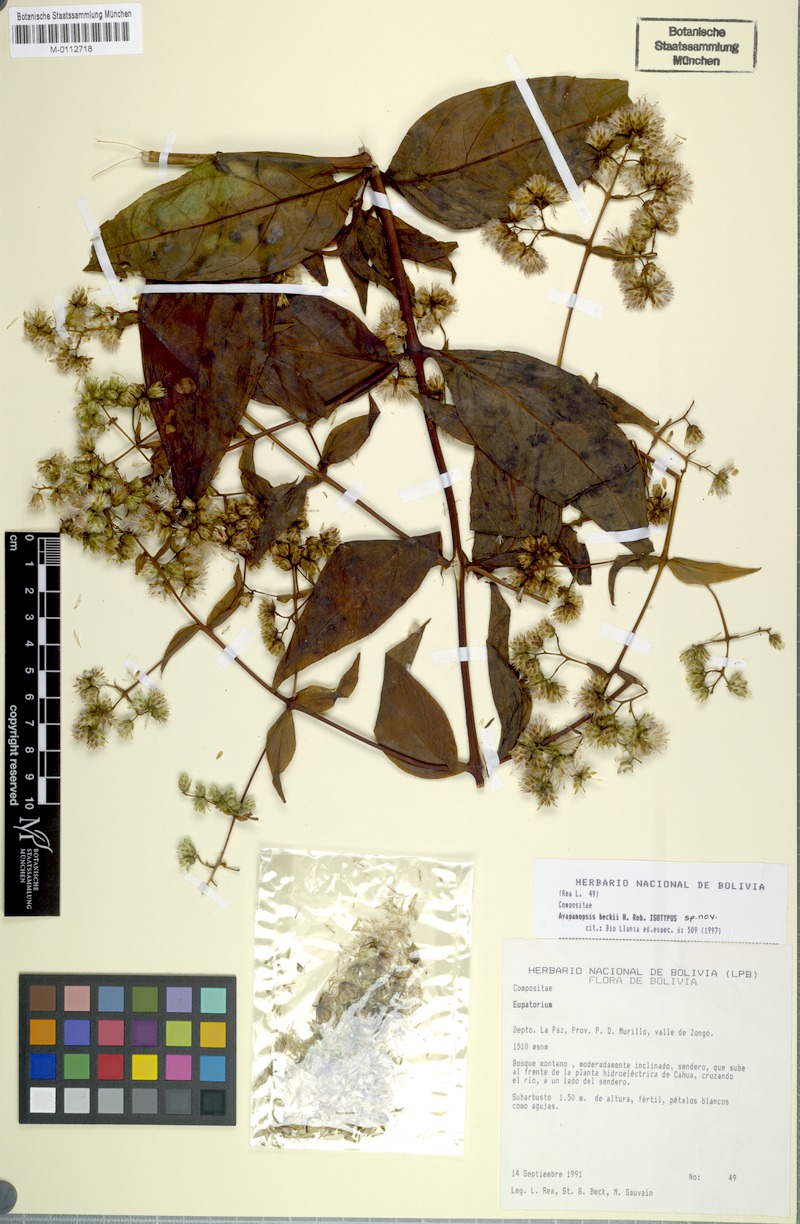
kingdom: Plantae
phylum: Tracheophyta
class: Magnoliopsida
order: Asterales
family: Asteraceae
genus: Ayapanopsis
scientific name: Ayapanopsis beckii
